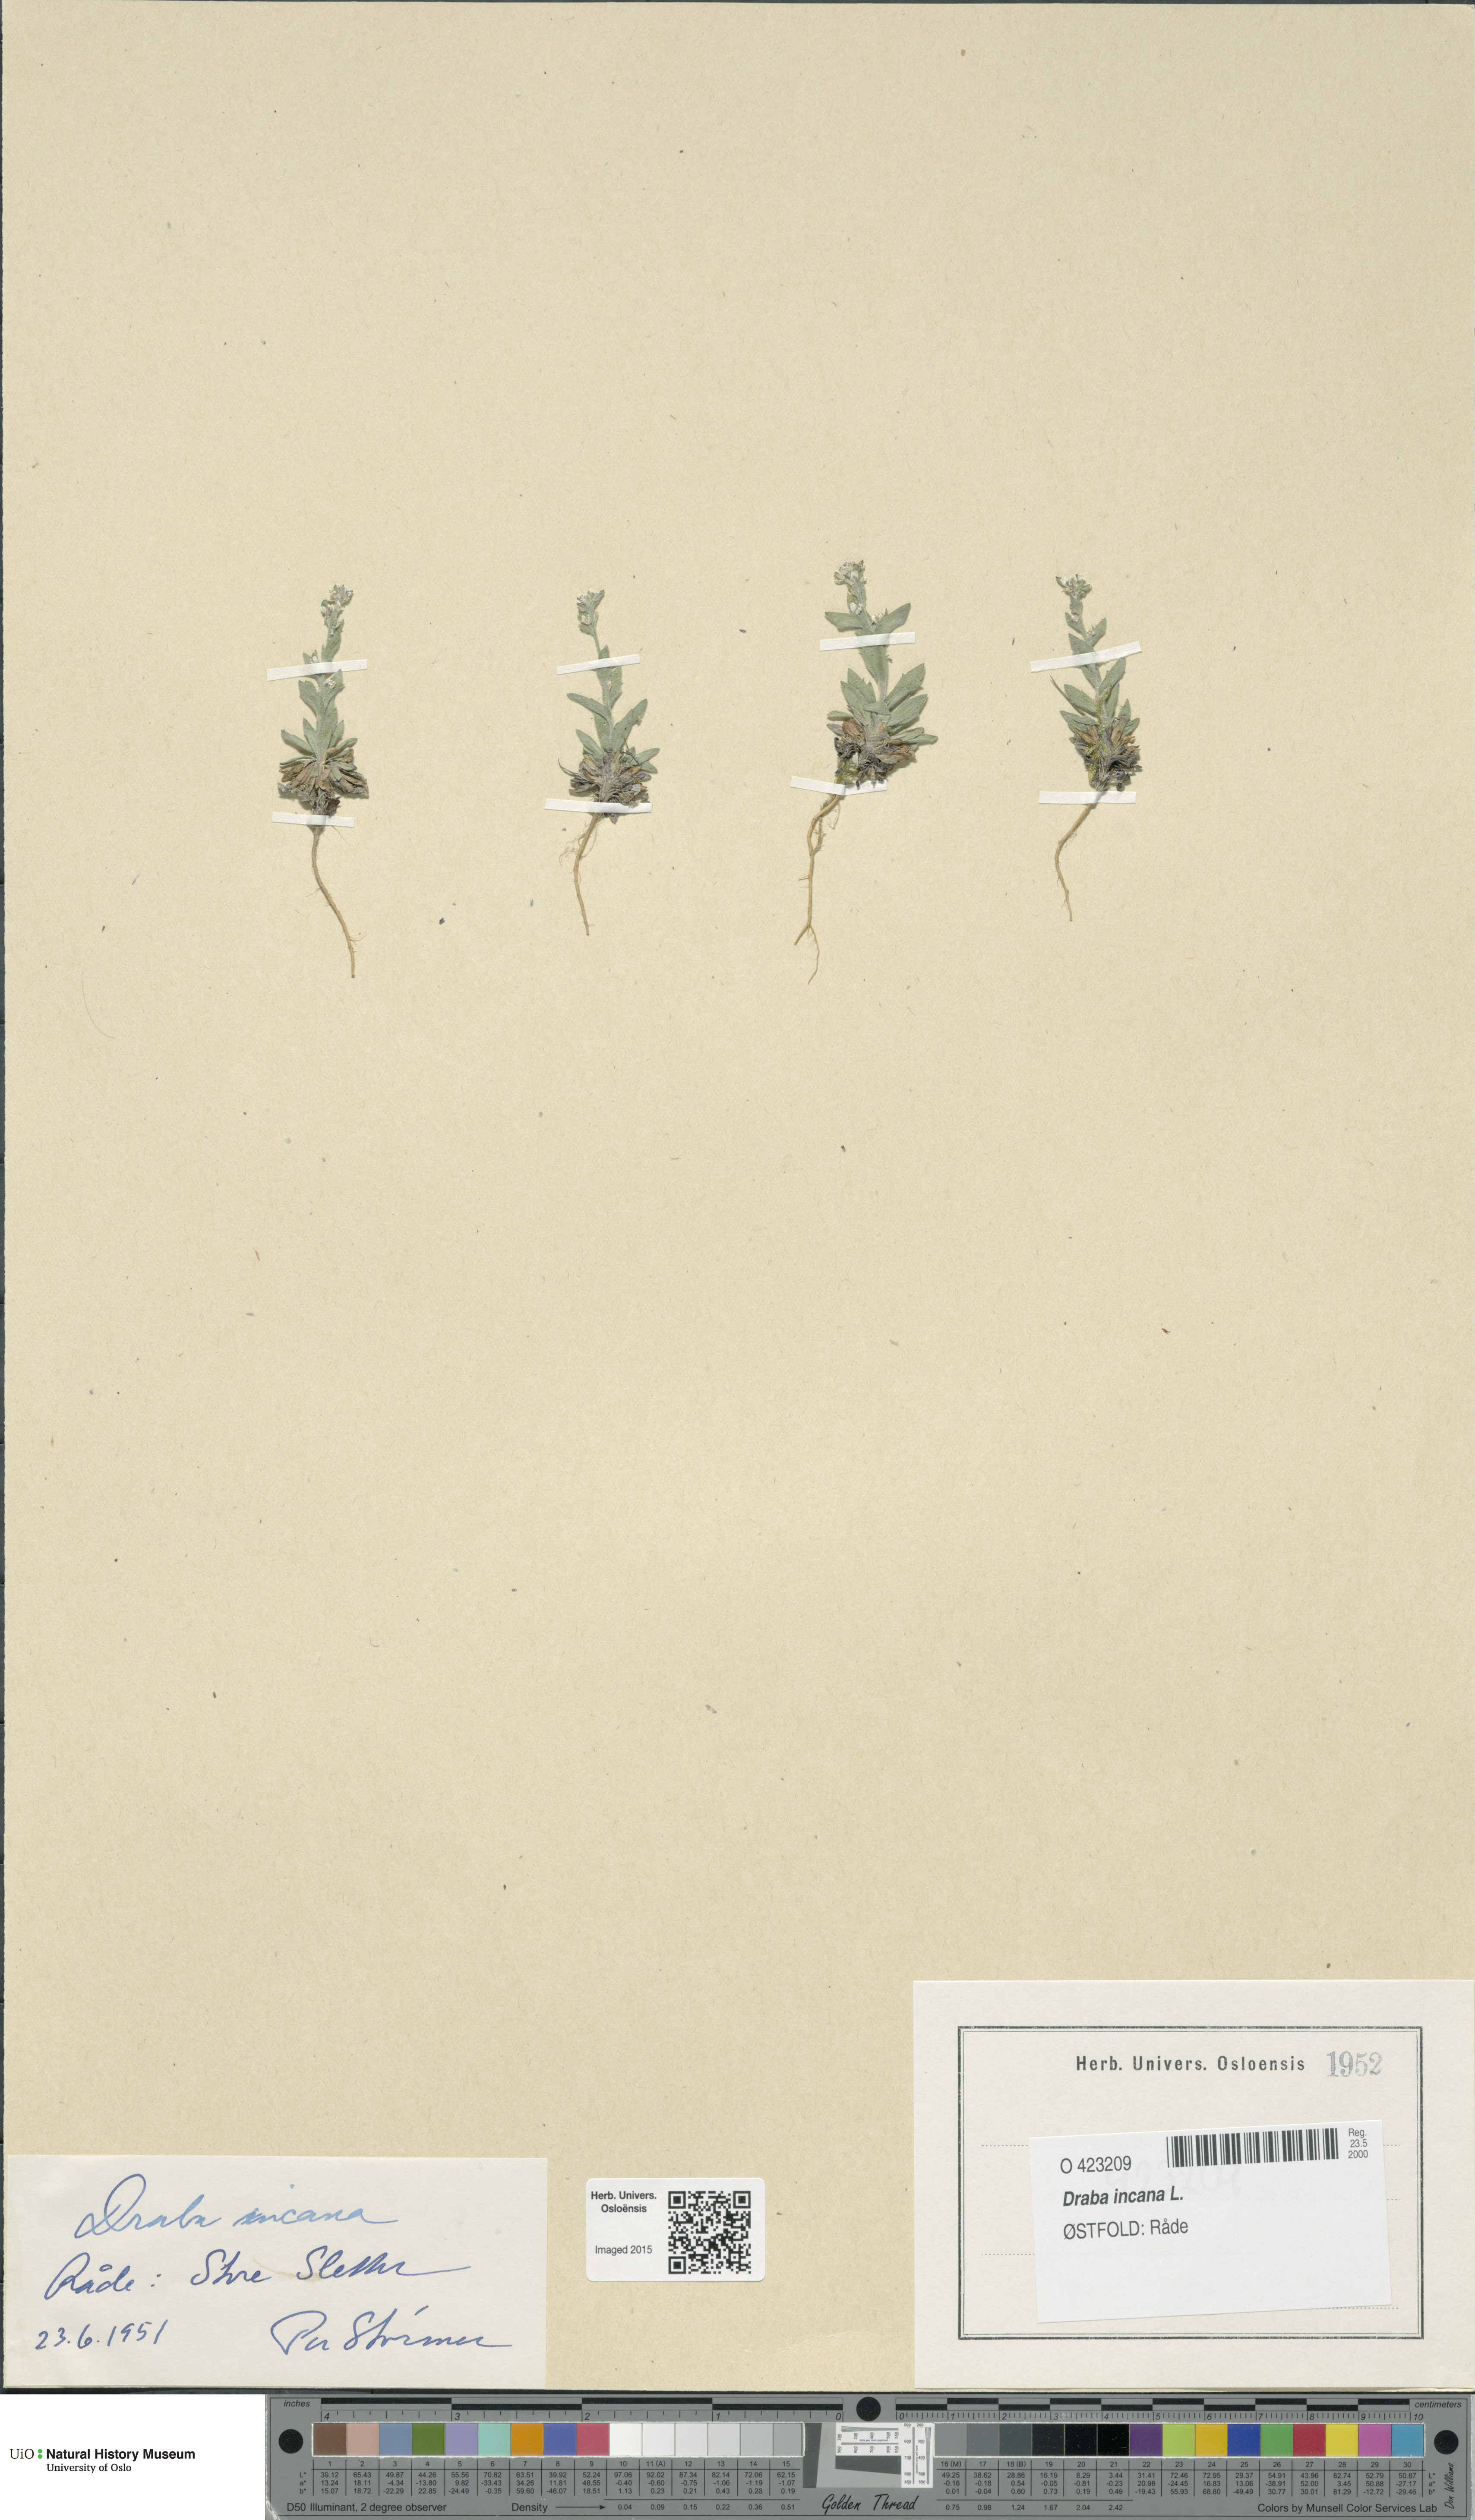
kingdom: Plantae
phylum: Tracheophyta
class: Magnoliopsida
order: Brassicales
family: Brassicaceae
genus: Draba
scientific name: Draba incana
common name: Hoary whitlow-grass
